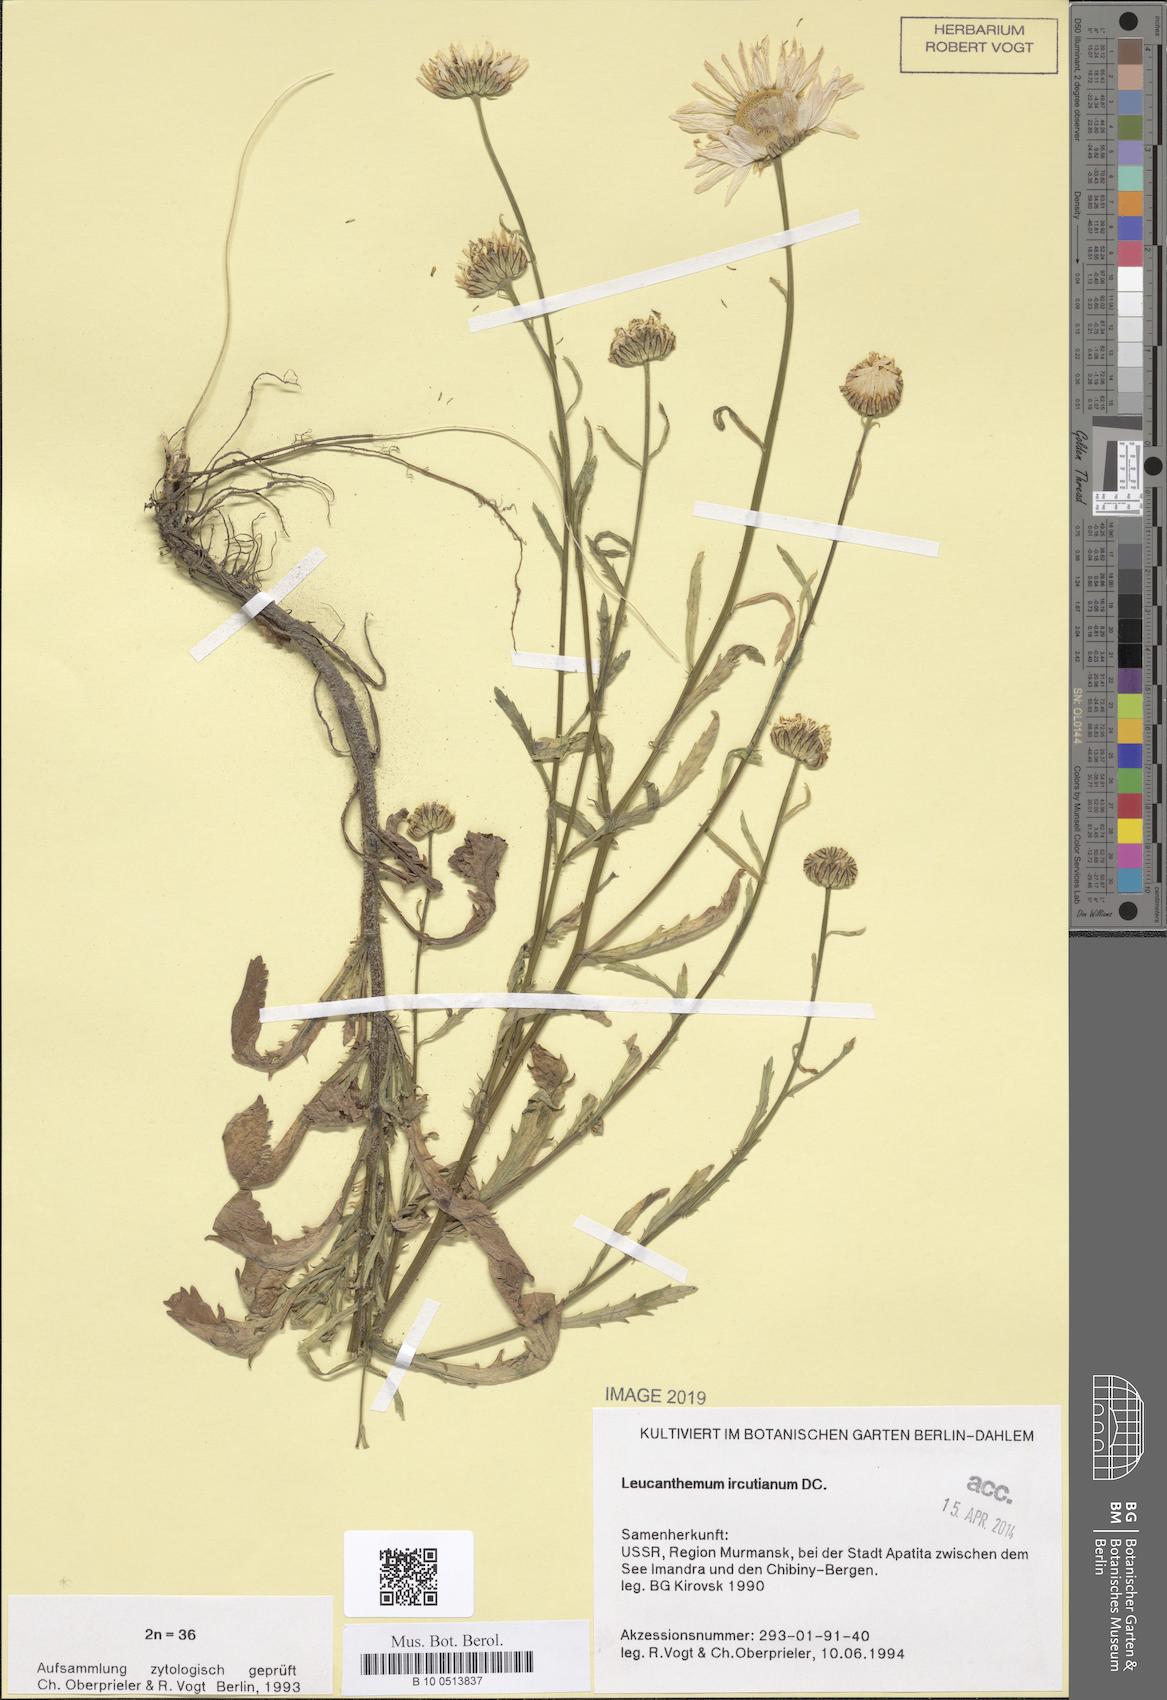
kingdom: Plantae
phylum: Tracheophyta
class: Magnoliopsida
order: Asterales
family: Asteraceae
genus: Leucanthemum
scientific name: Leucanthemum ircutianum
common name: Daisy
